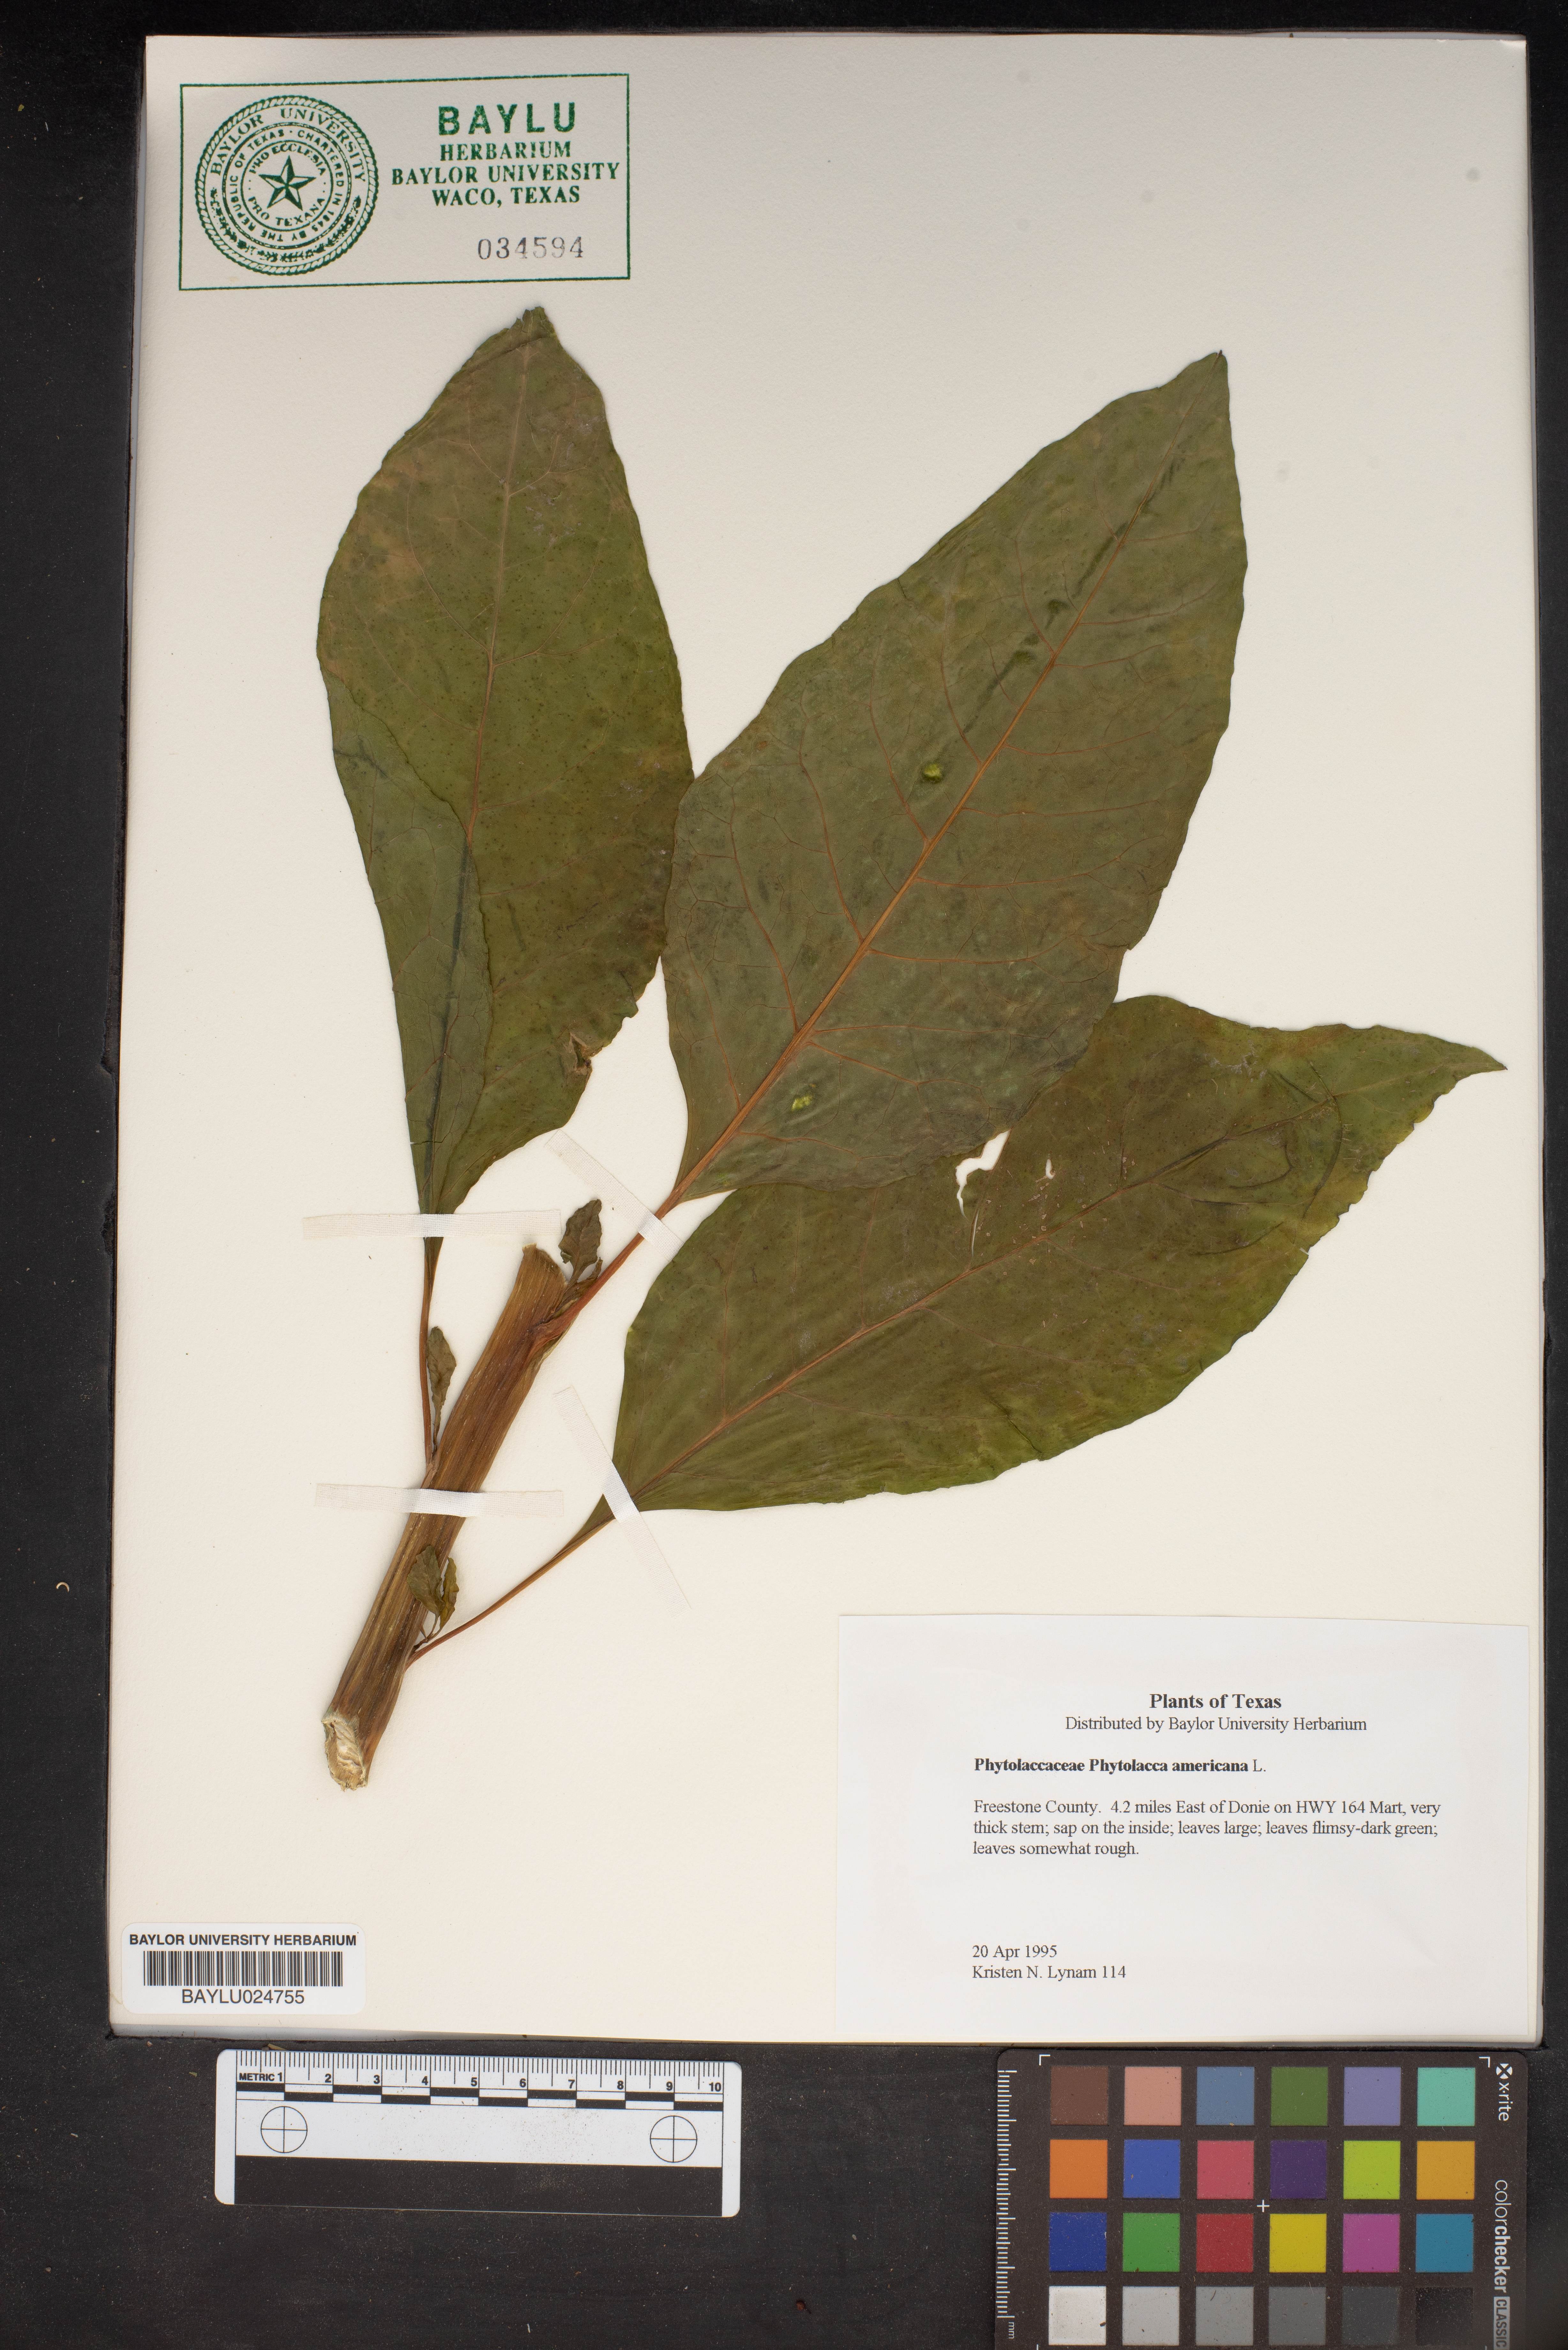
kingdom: Plantae
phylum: Tracheophyta
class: Magnoliopsida
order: Caryophyllales
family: Phytolaccaceae
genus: Phytolacca
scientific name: Phytolacca americana
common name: American pokeweed
